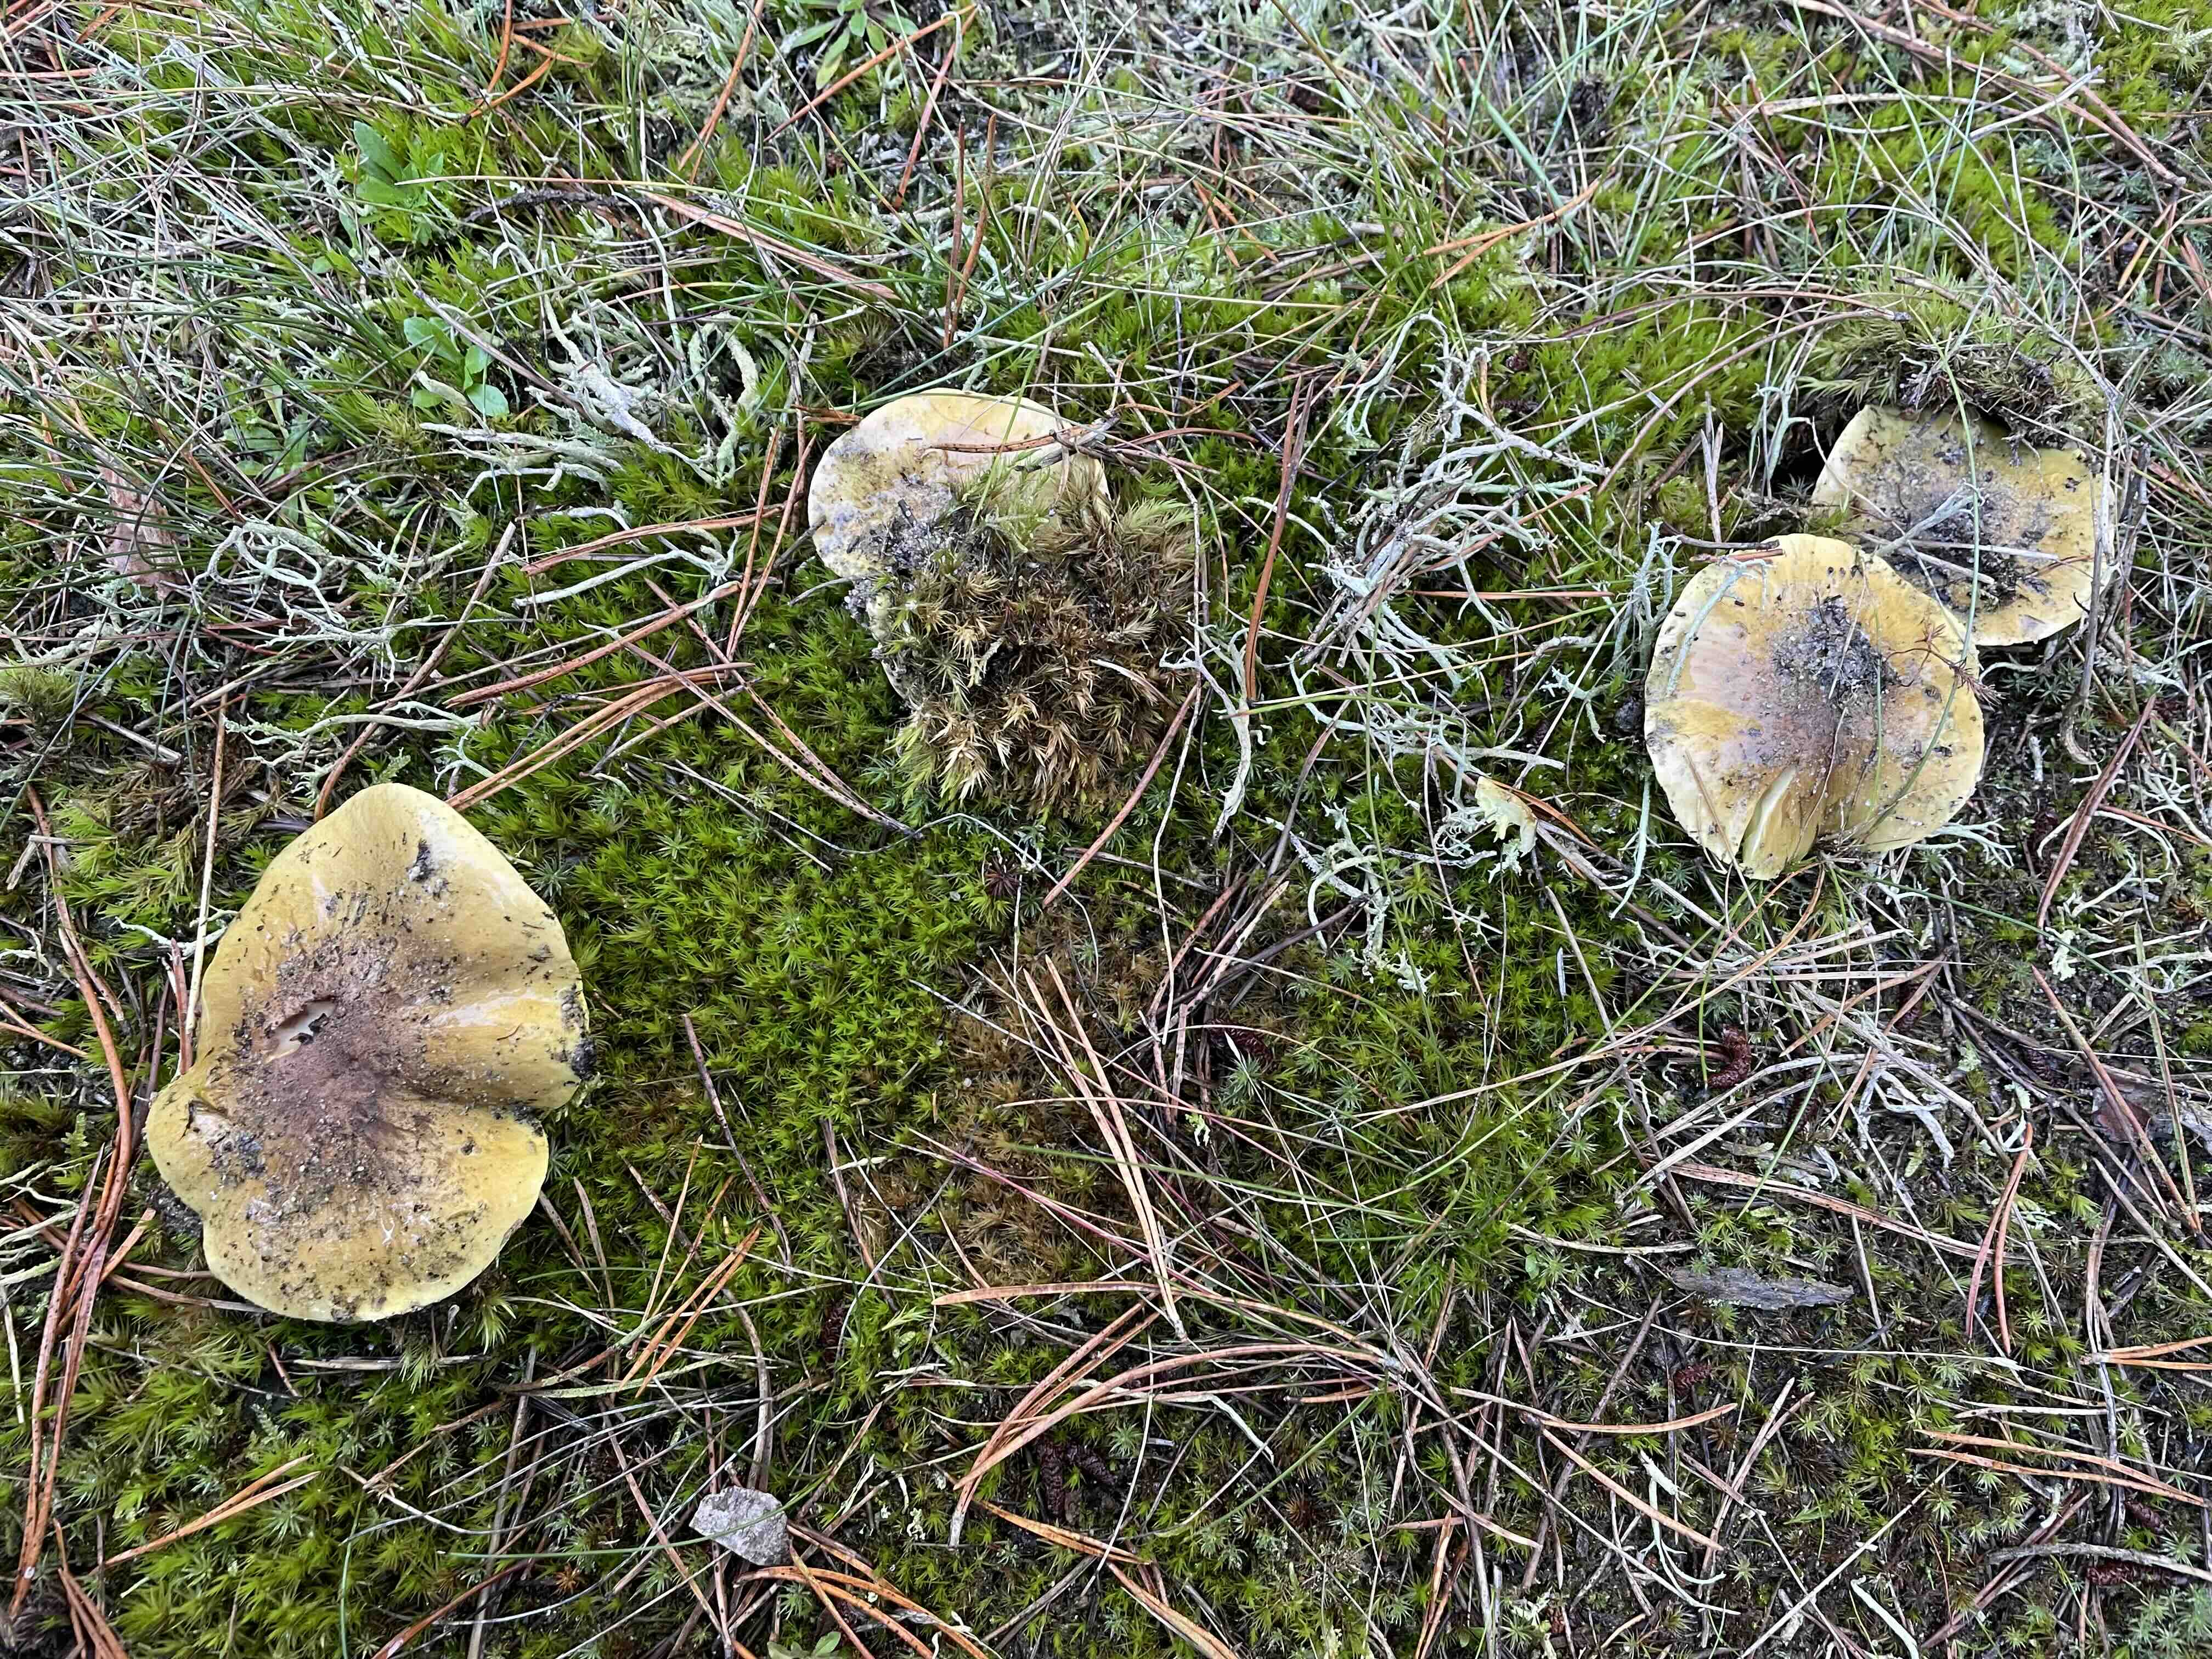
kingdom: Fungi
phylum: Basidiomycota
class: Agaricomycetes
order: Agaricales
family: Tricholomataceae
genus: Tricholoma
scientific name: Tricholoma equestre
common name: ægte ridderhat
